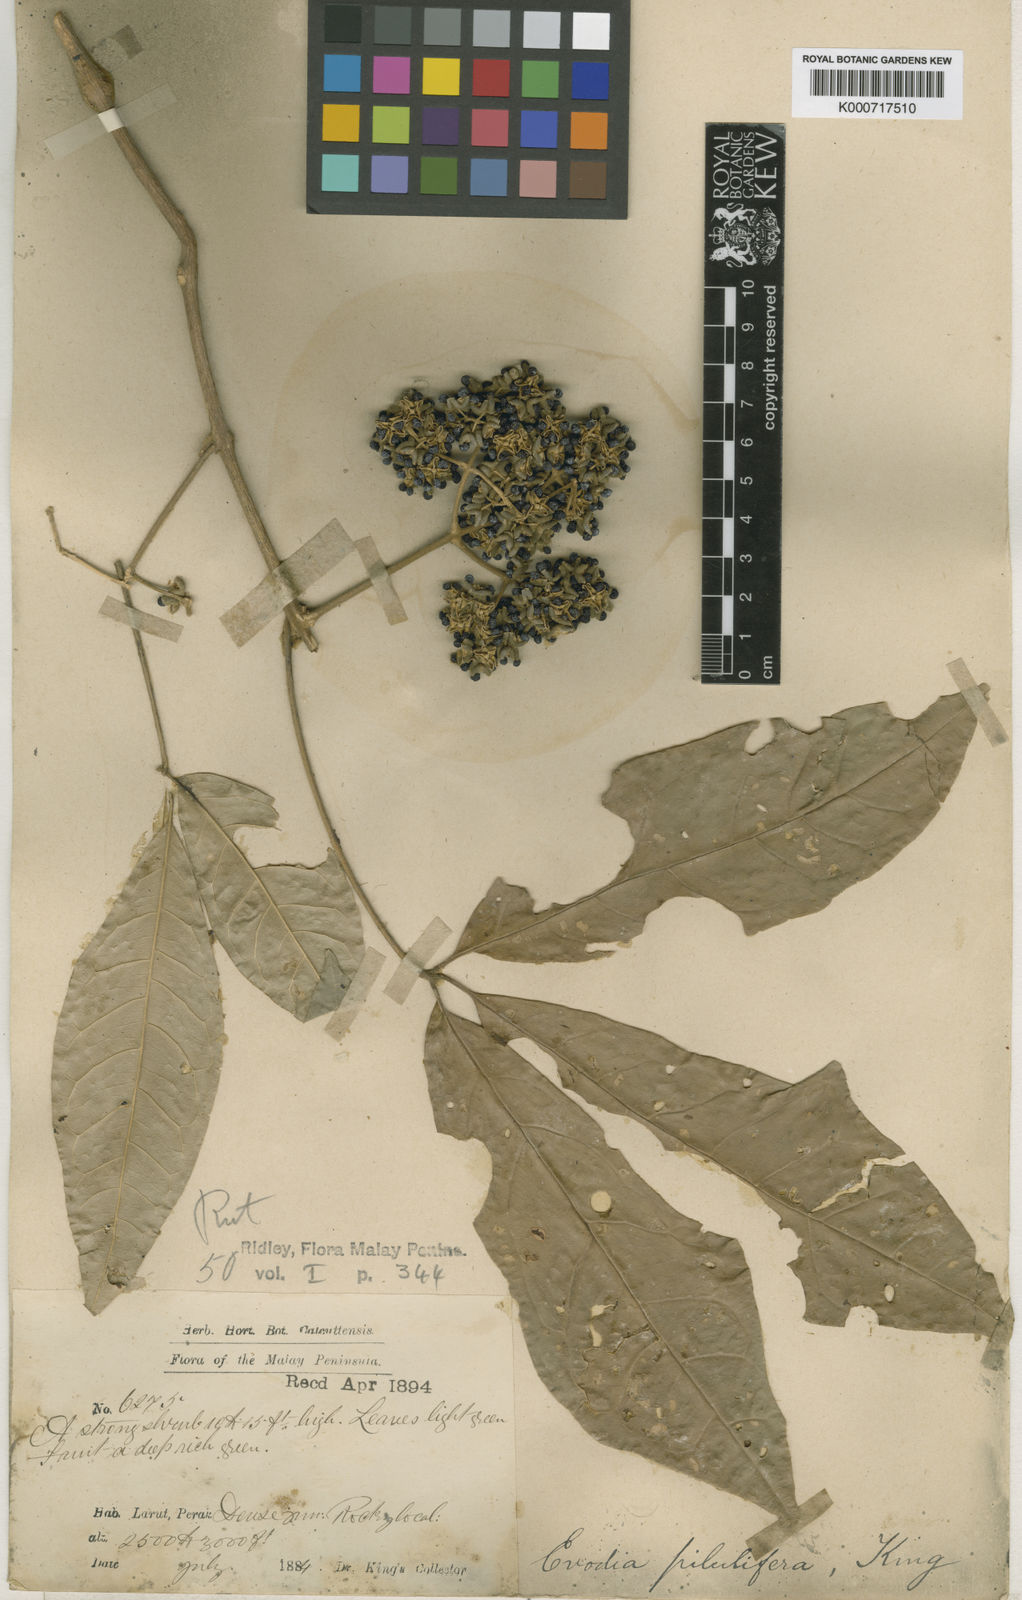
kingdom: Plantae
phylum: Tracheophyta
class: Magnoliopsida
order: Sapindales
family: Rutaceae
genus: Melicope
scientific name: Melicope accedens
